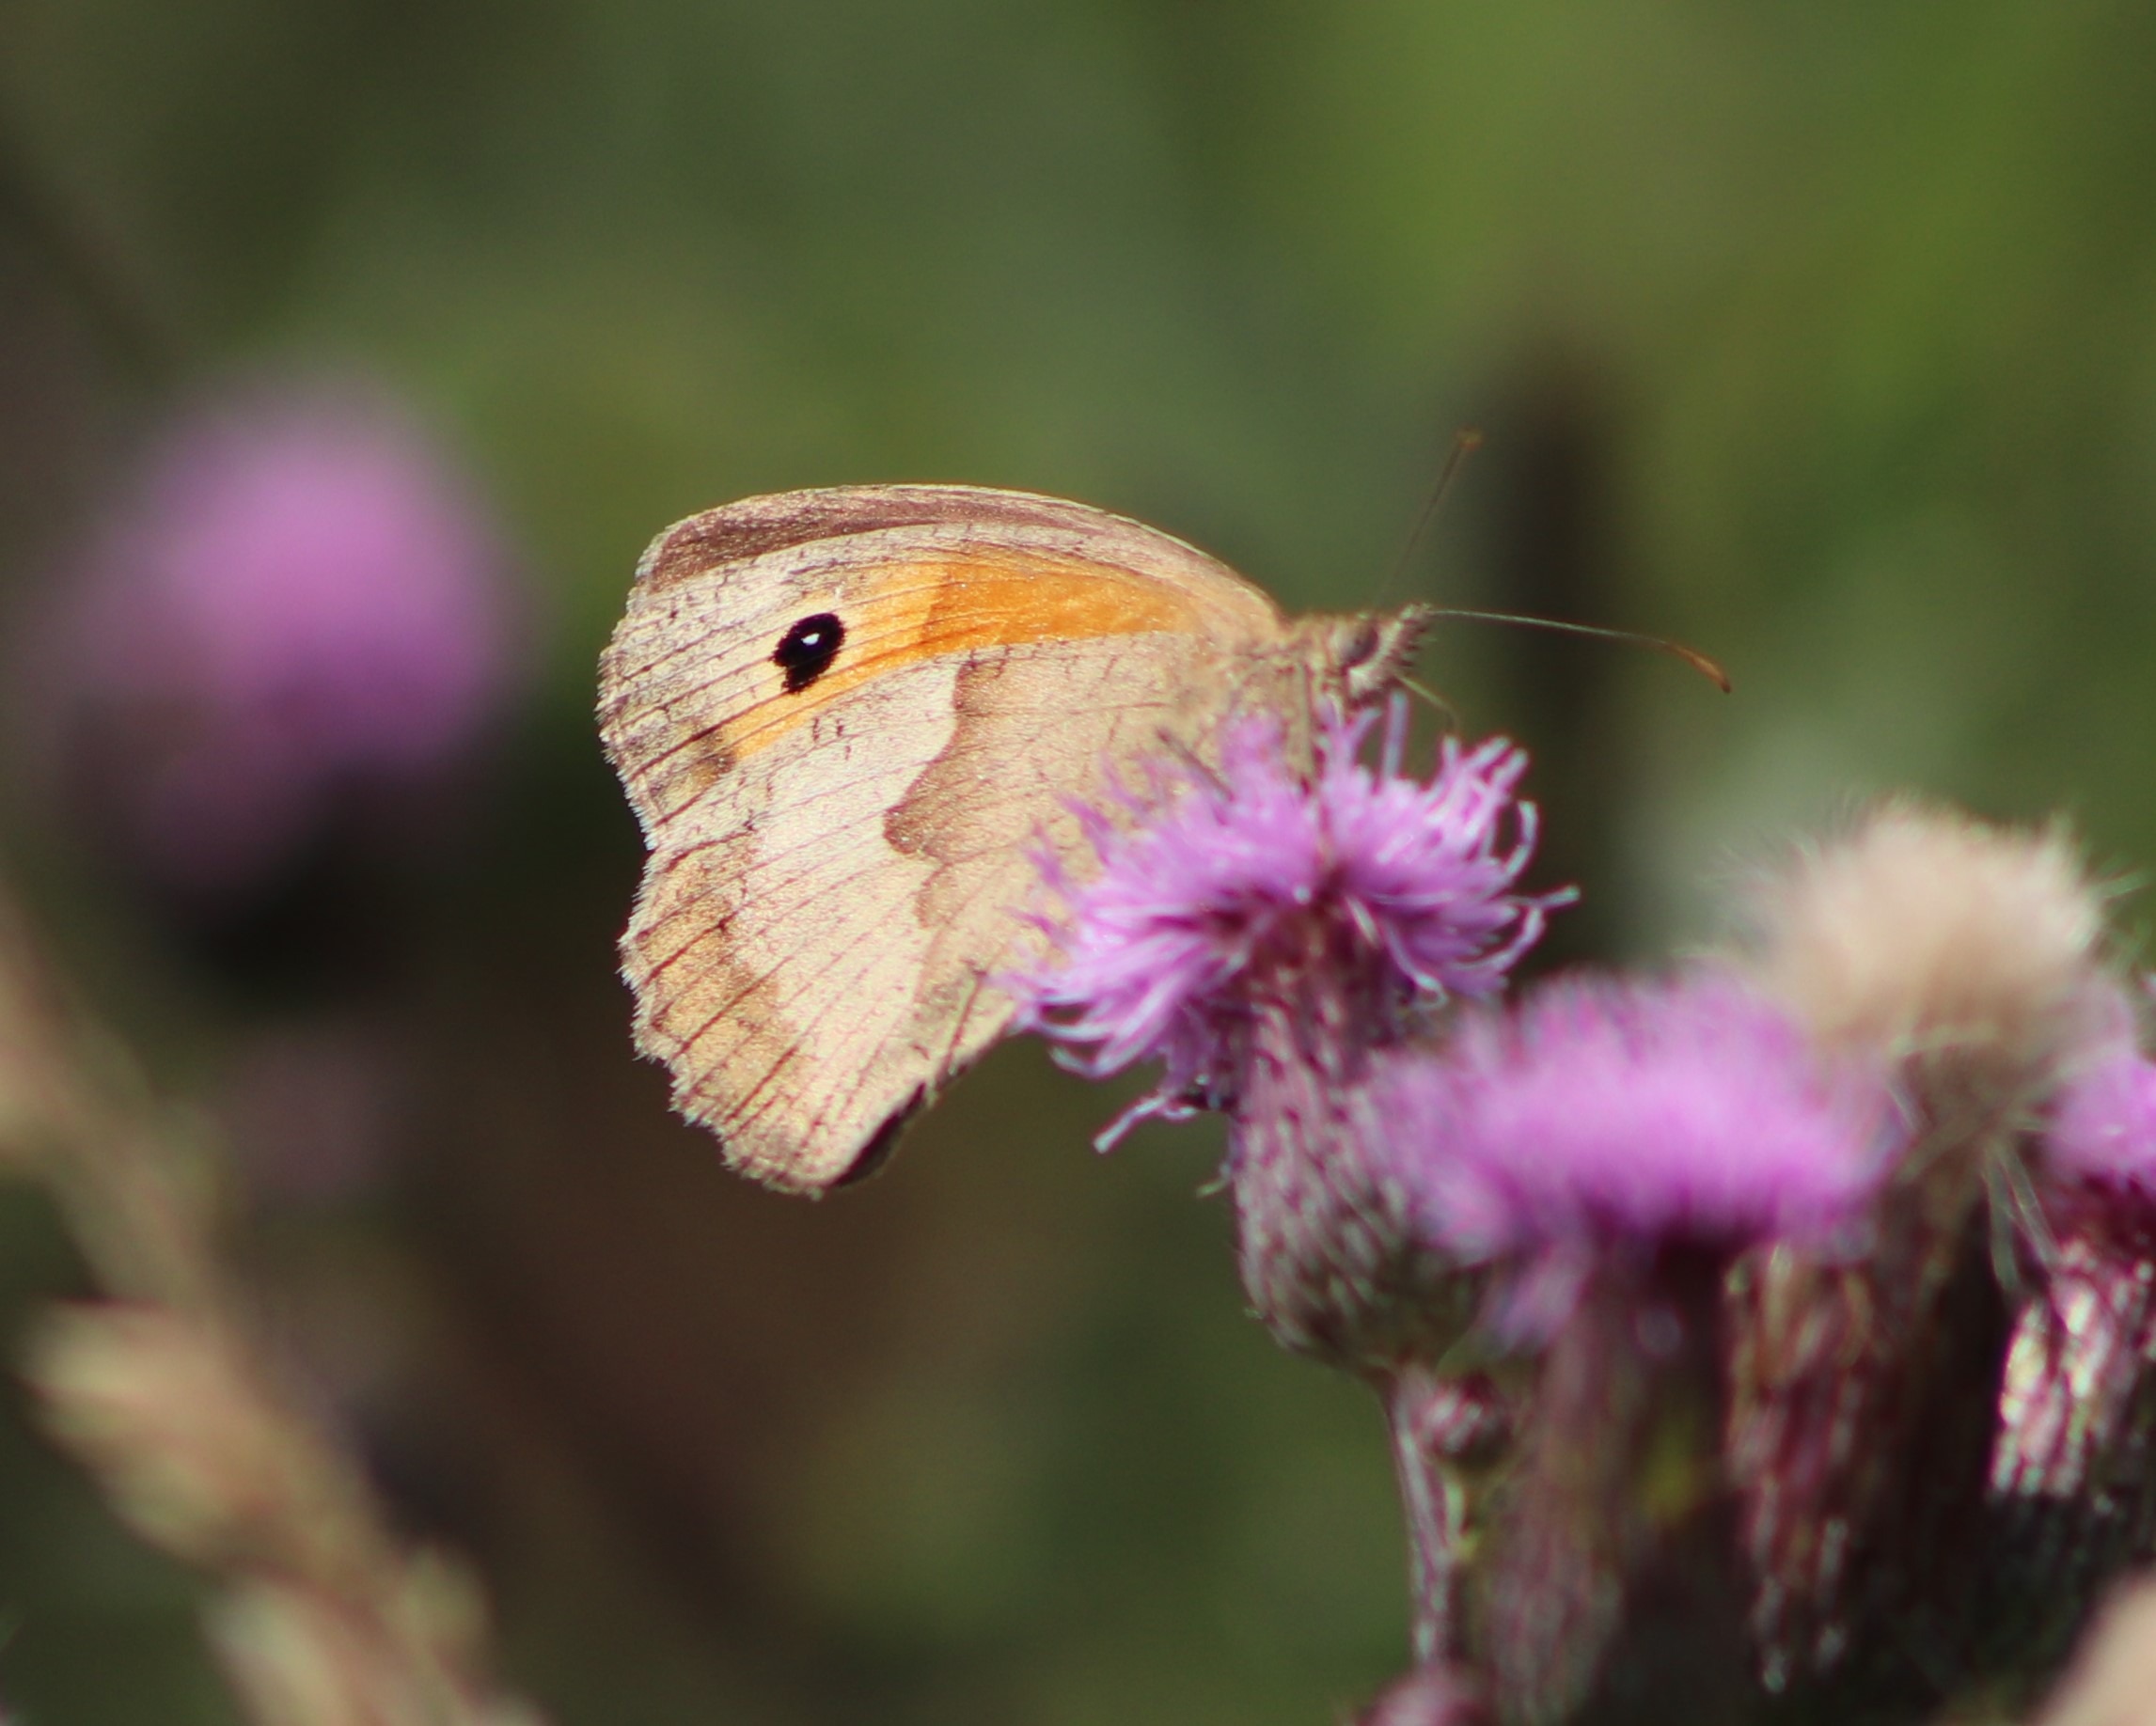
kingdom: Animalia
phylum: Arthropoda
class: Insecta
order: Lepidoptera
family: Nymphalidae
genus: Maniola
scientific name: Maniola jurtina
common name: Græsrandøje
